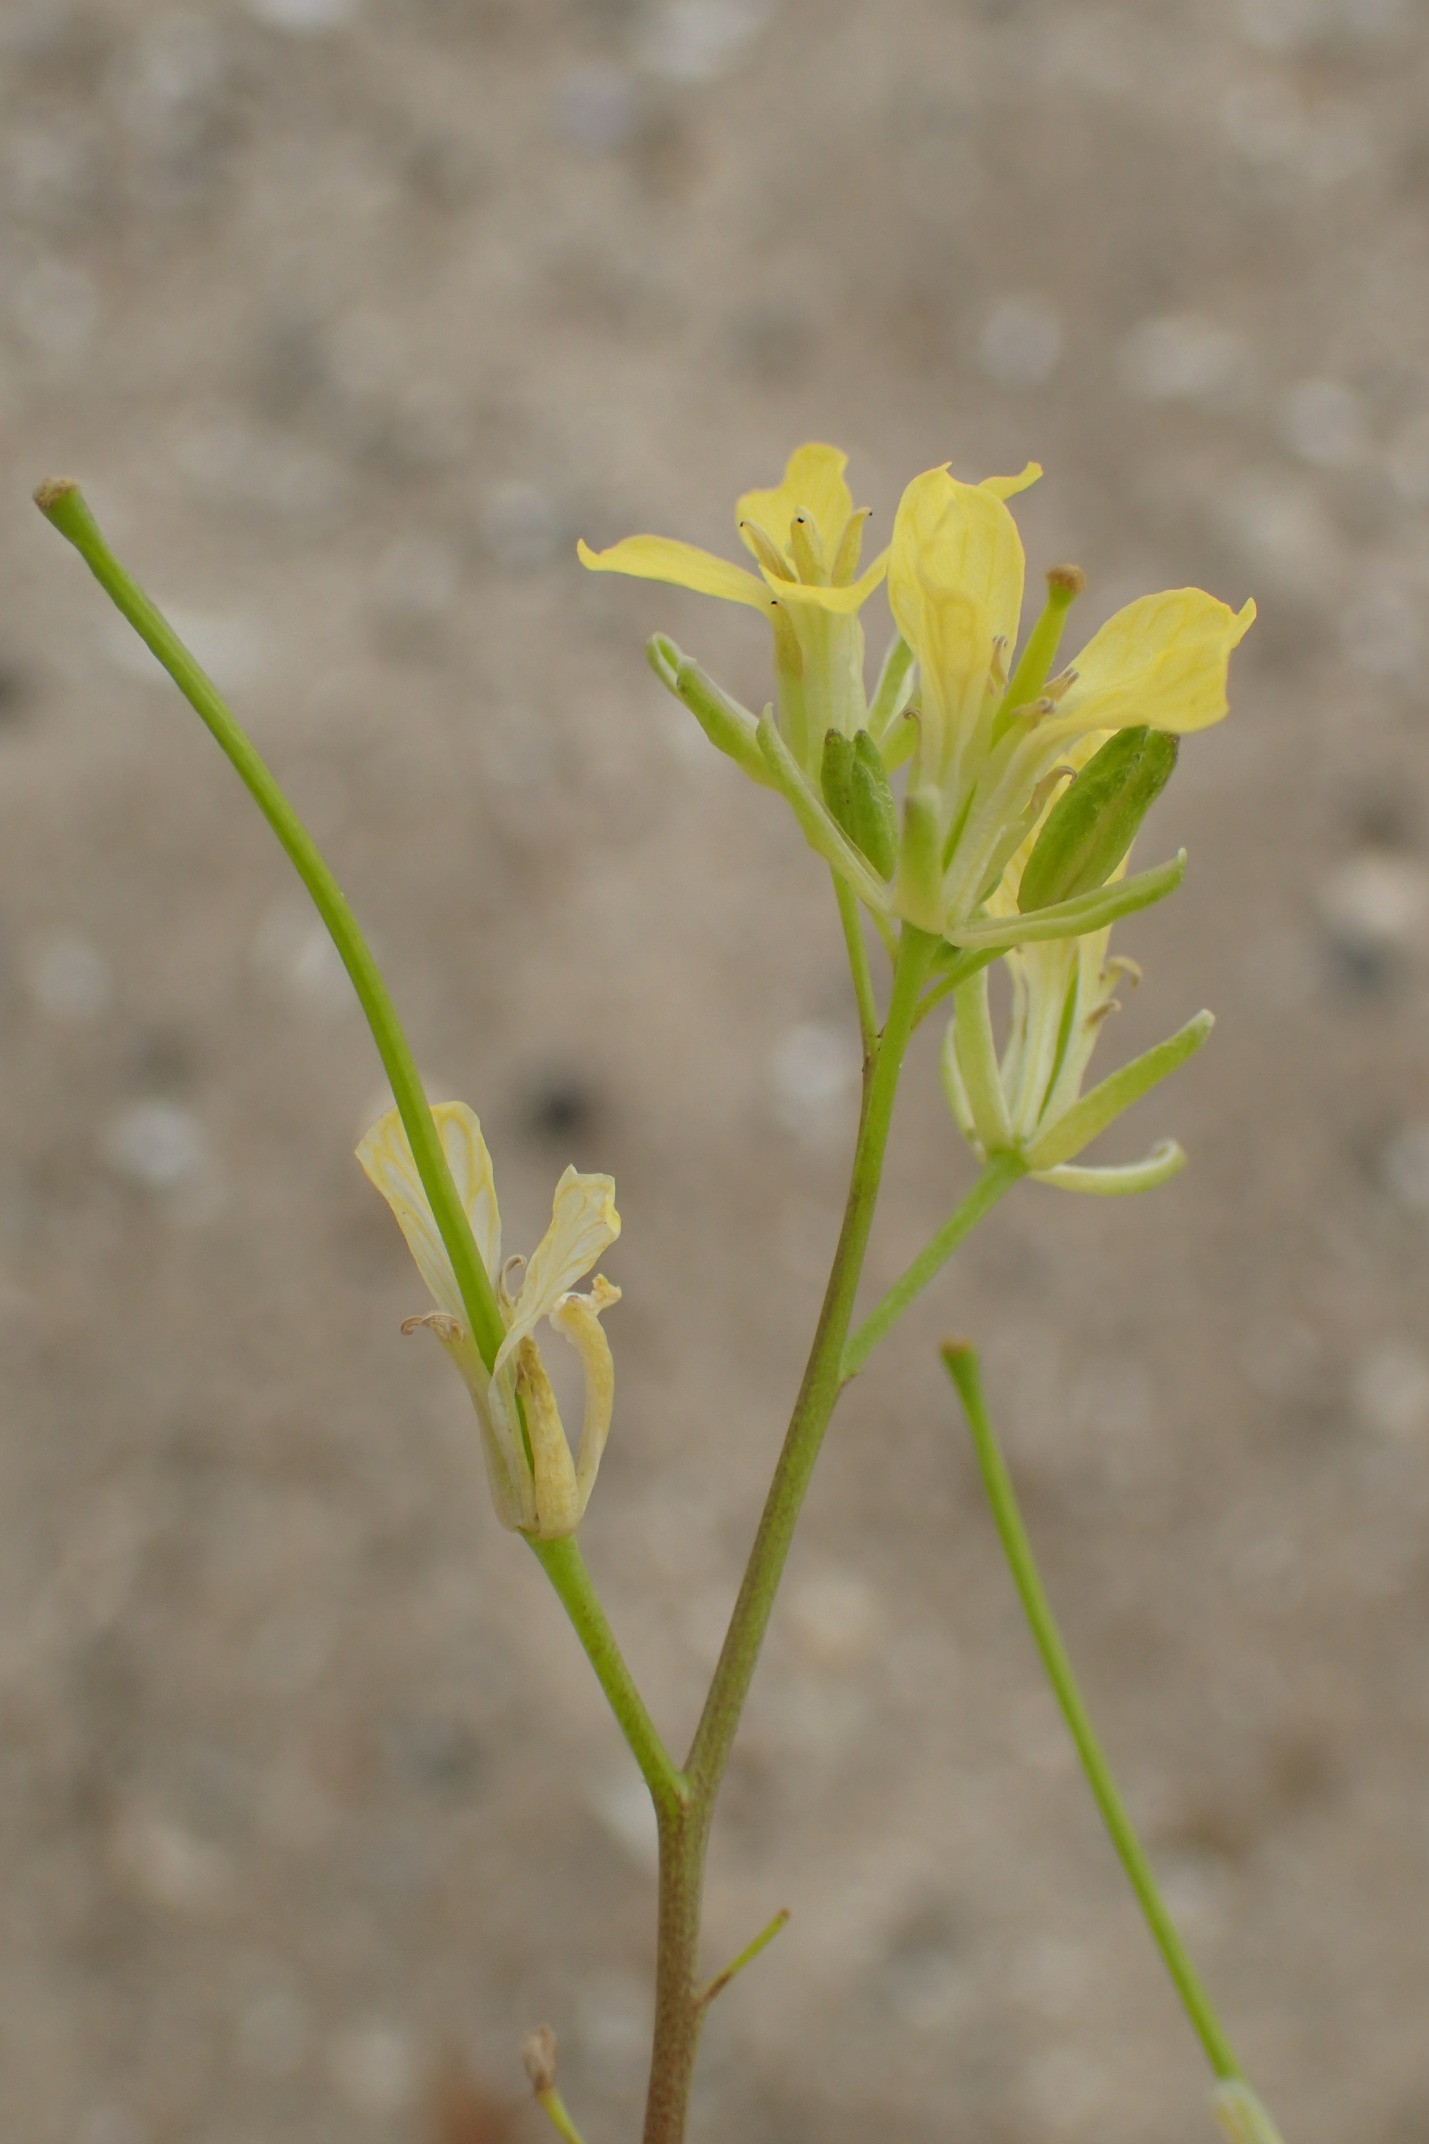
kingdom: Plantae
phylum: Tracheophyta
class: Magnoliopsida
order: Brassicales
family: Brassicaceae
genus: Sisymbrium
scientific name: Sisymbrium altissimum
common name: Ungarsk vejsennep
